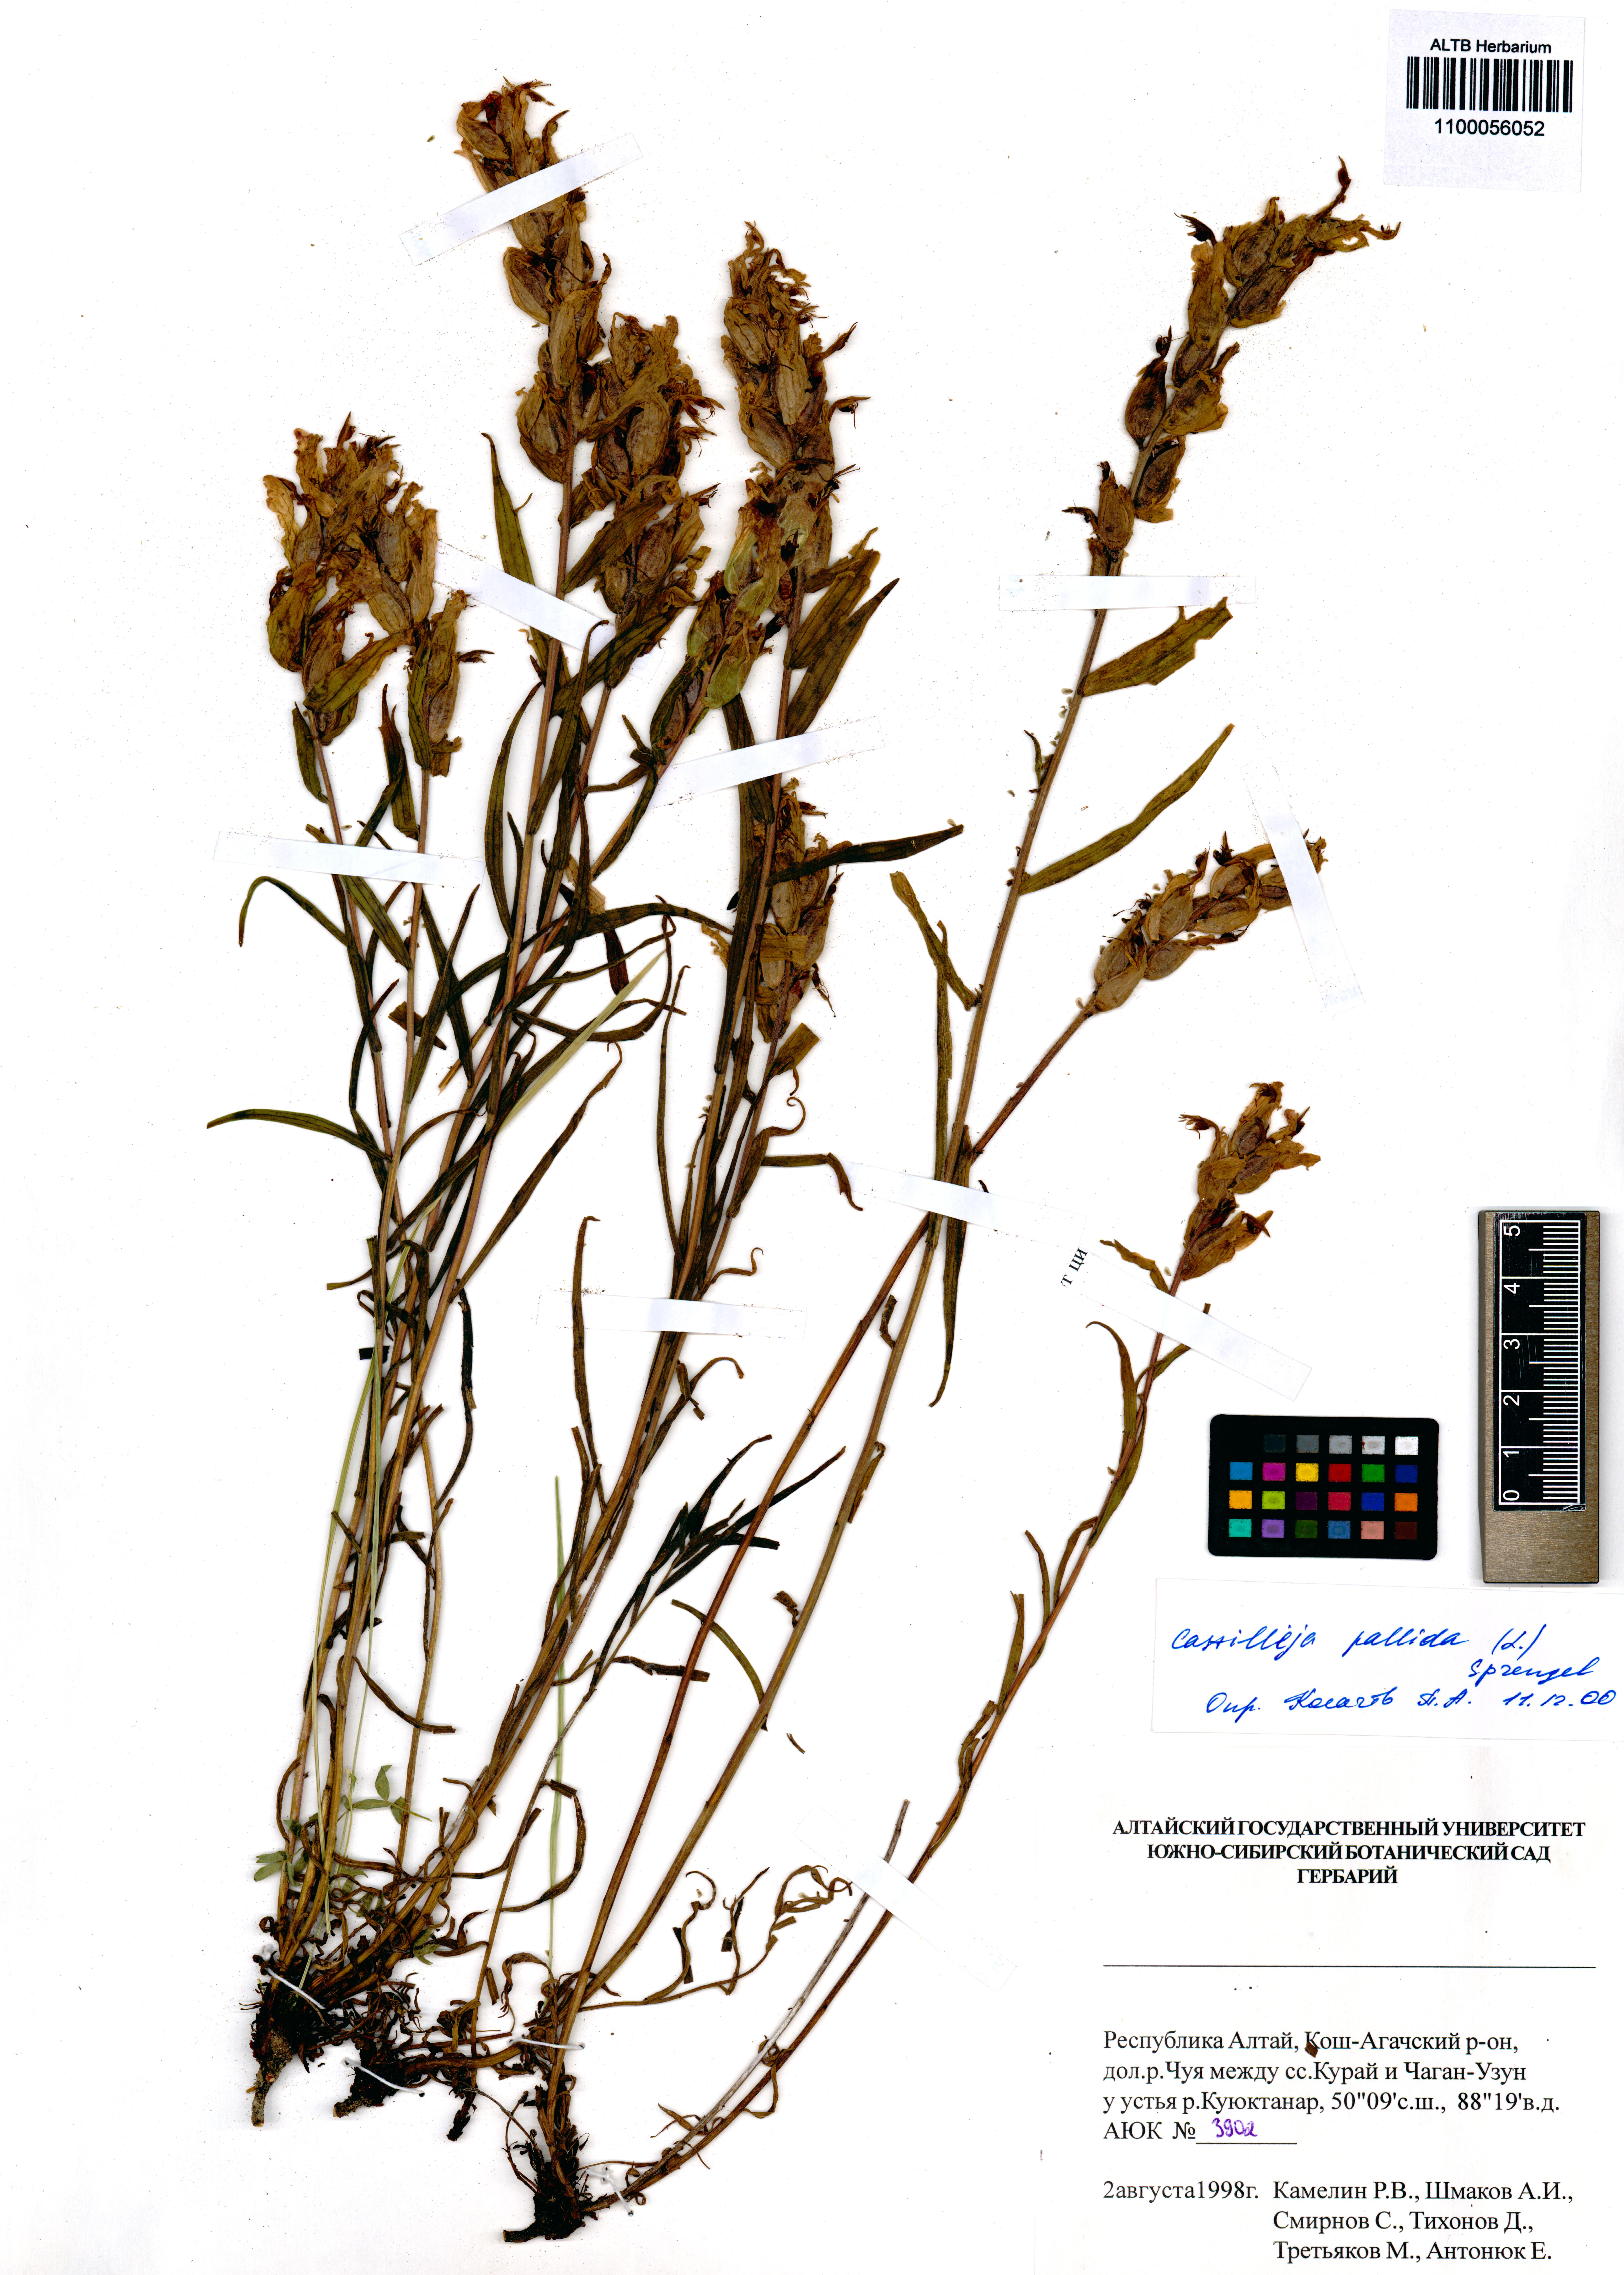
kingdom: Plantae
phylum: Tracheophyta
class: Magnoliopsida
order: Lamiales
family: Orobanchaceae
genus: Castilleja
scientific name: Castilleja pallida
